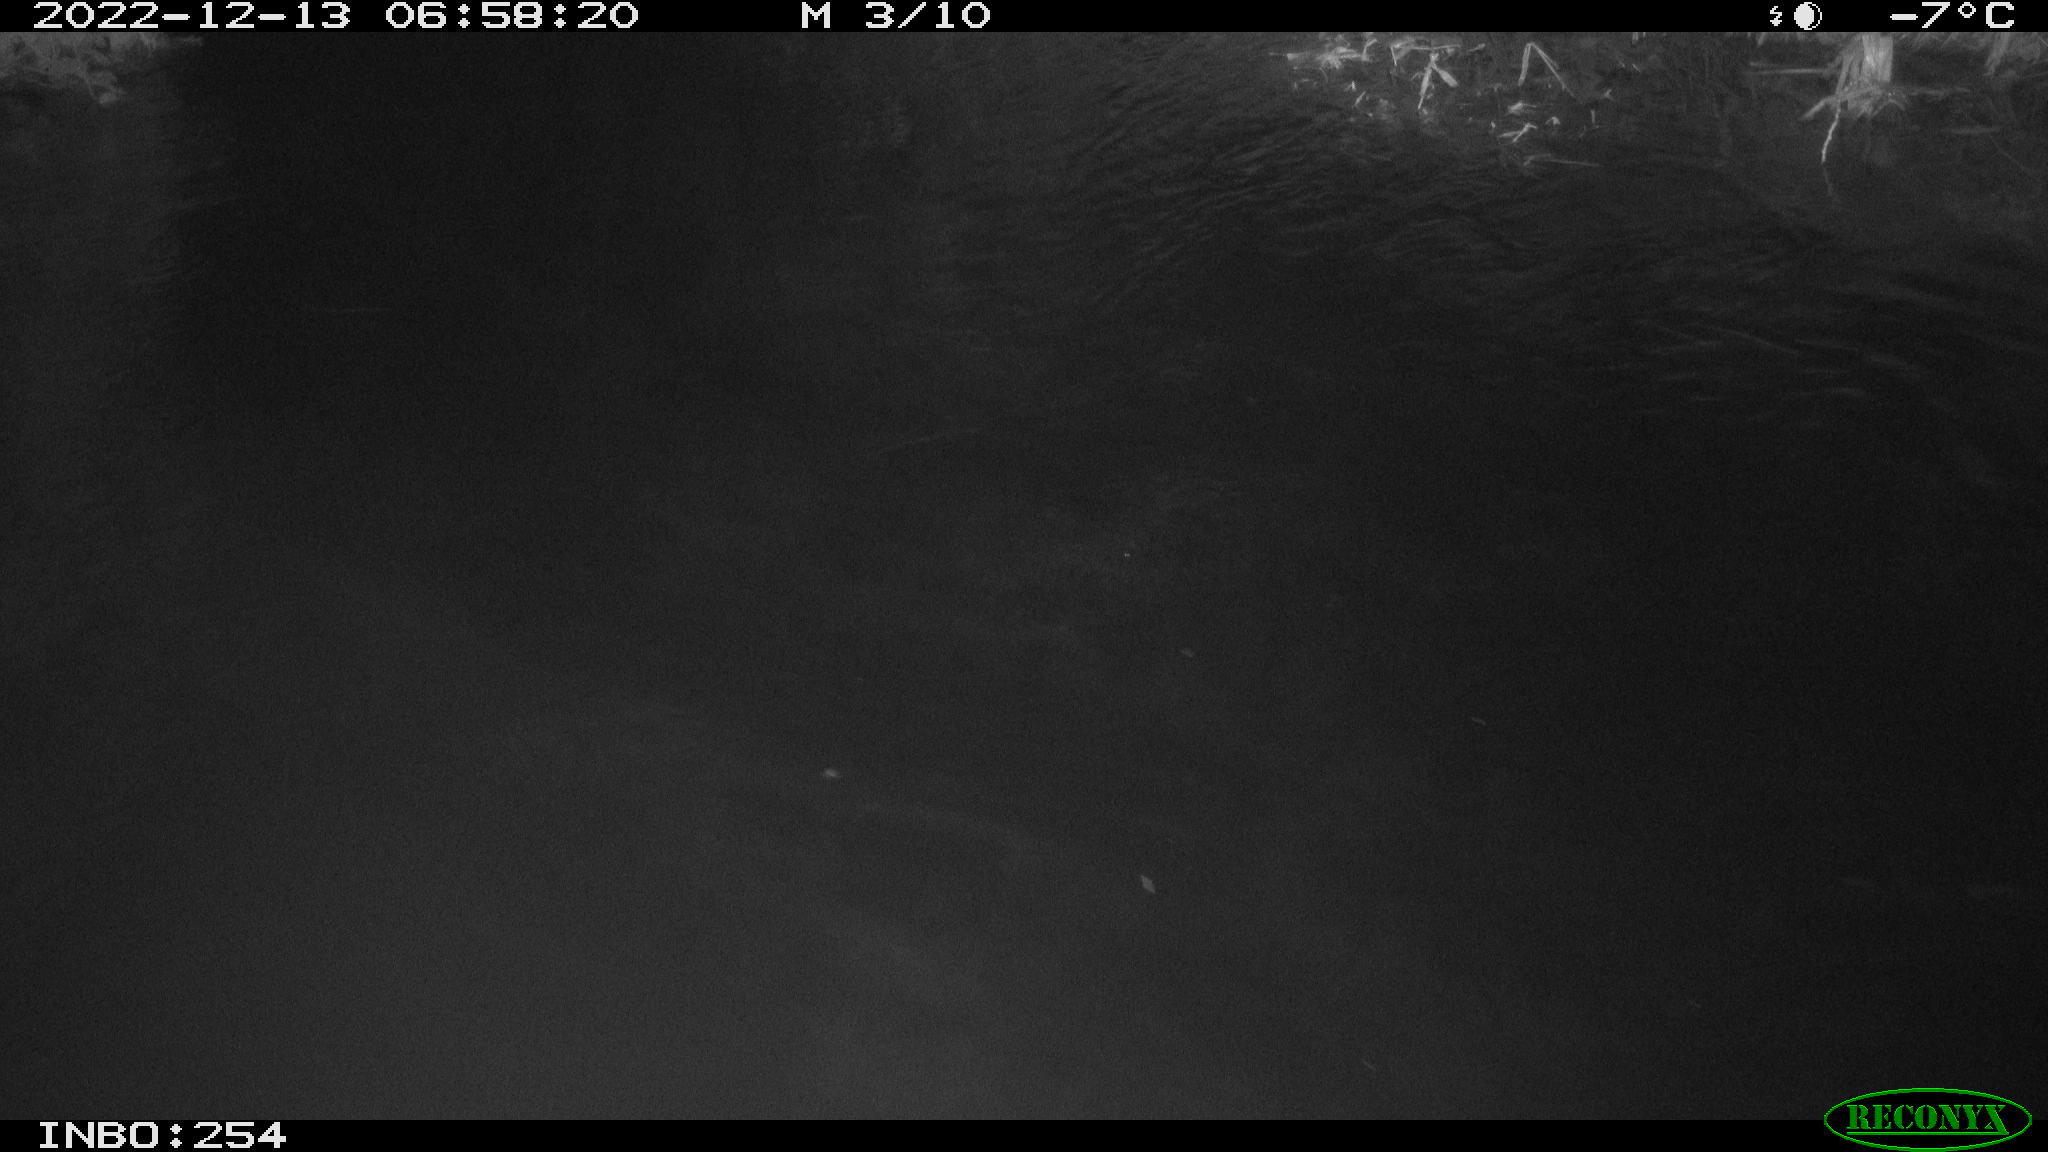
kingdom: Animalia
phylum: Chordata
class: Aves
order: Anseriformes
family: Anatidae
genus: Anas
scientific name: Anas
